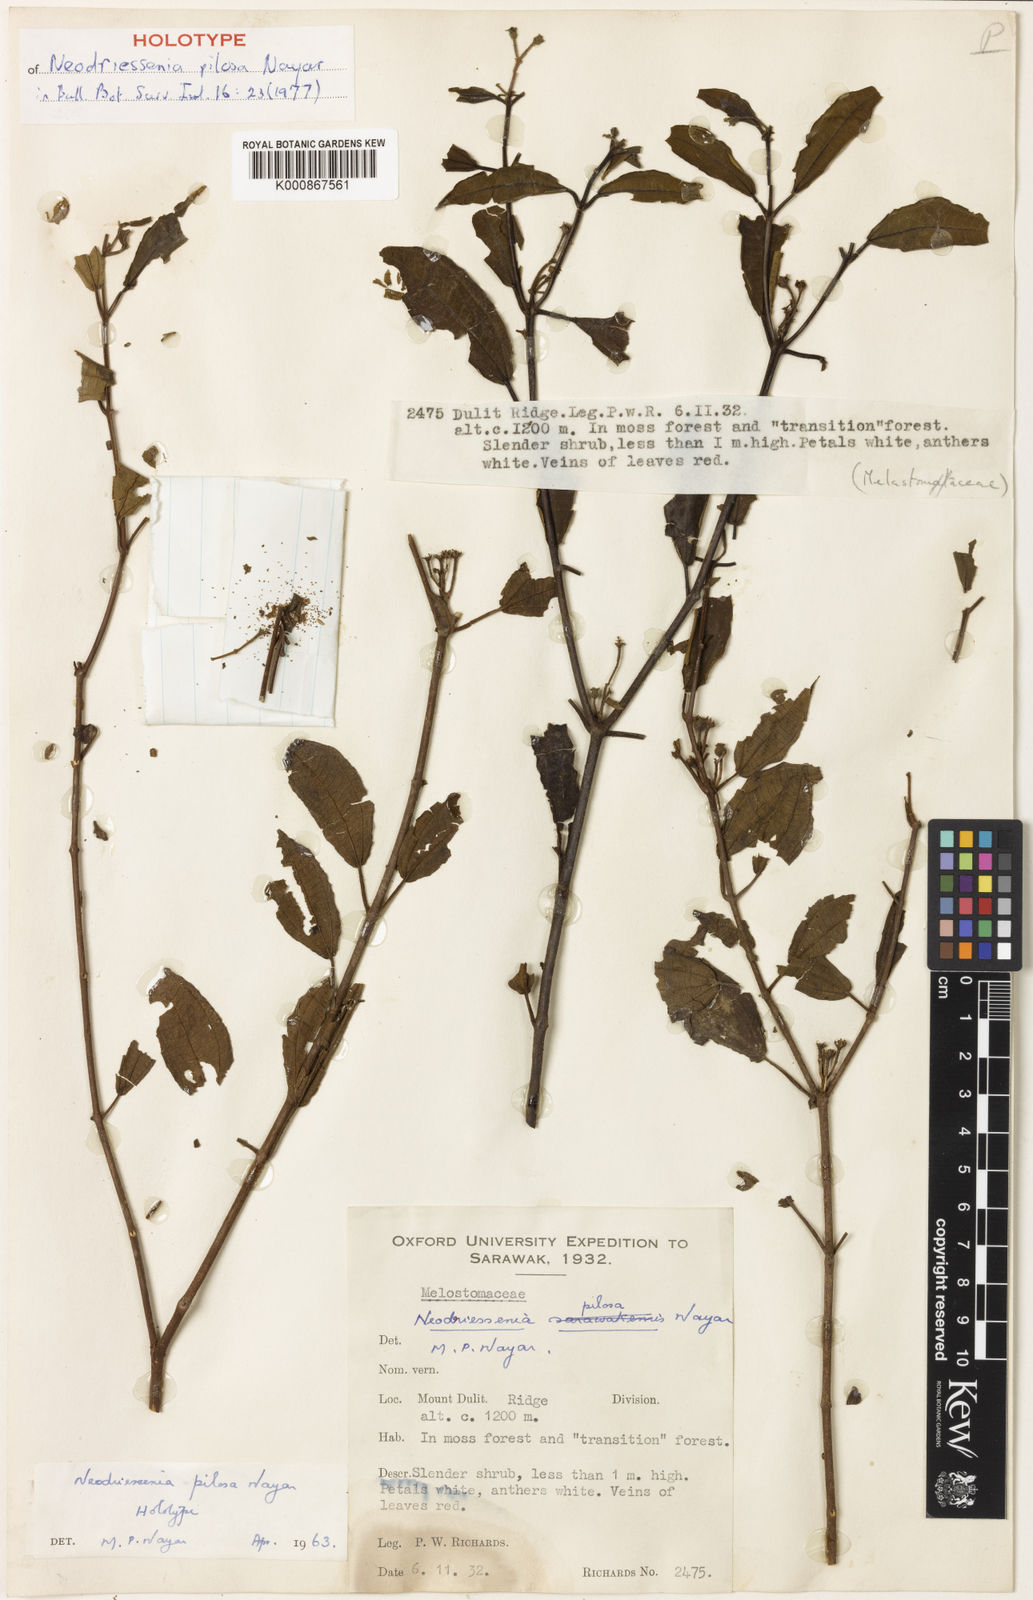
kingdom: Plantae
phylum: Tracheophyta
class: Magnoliopsida
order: Myrtales
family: Melastomataceae
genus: Neodriessenia
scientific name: Neodriessenia pilosa
